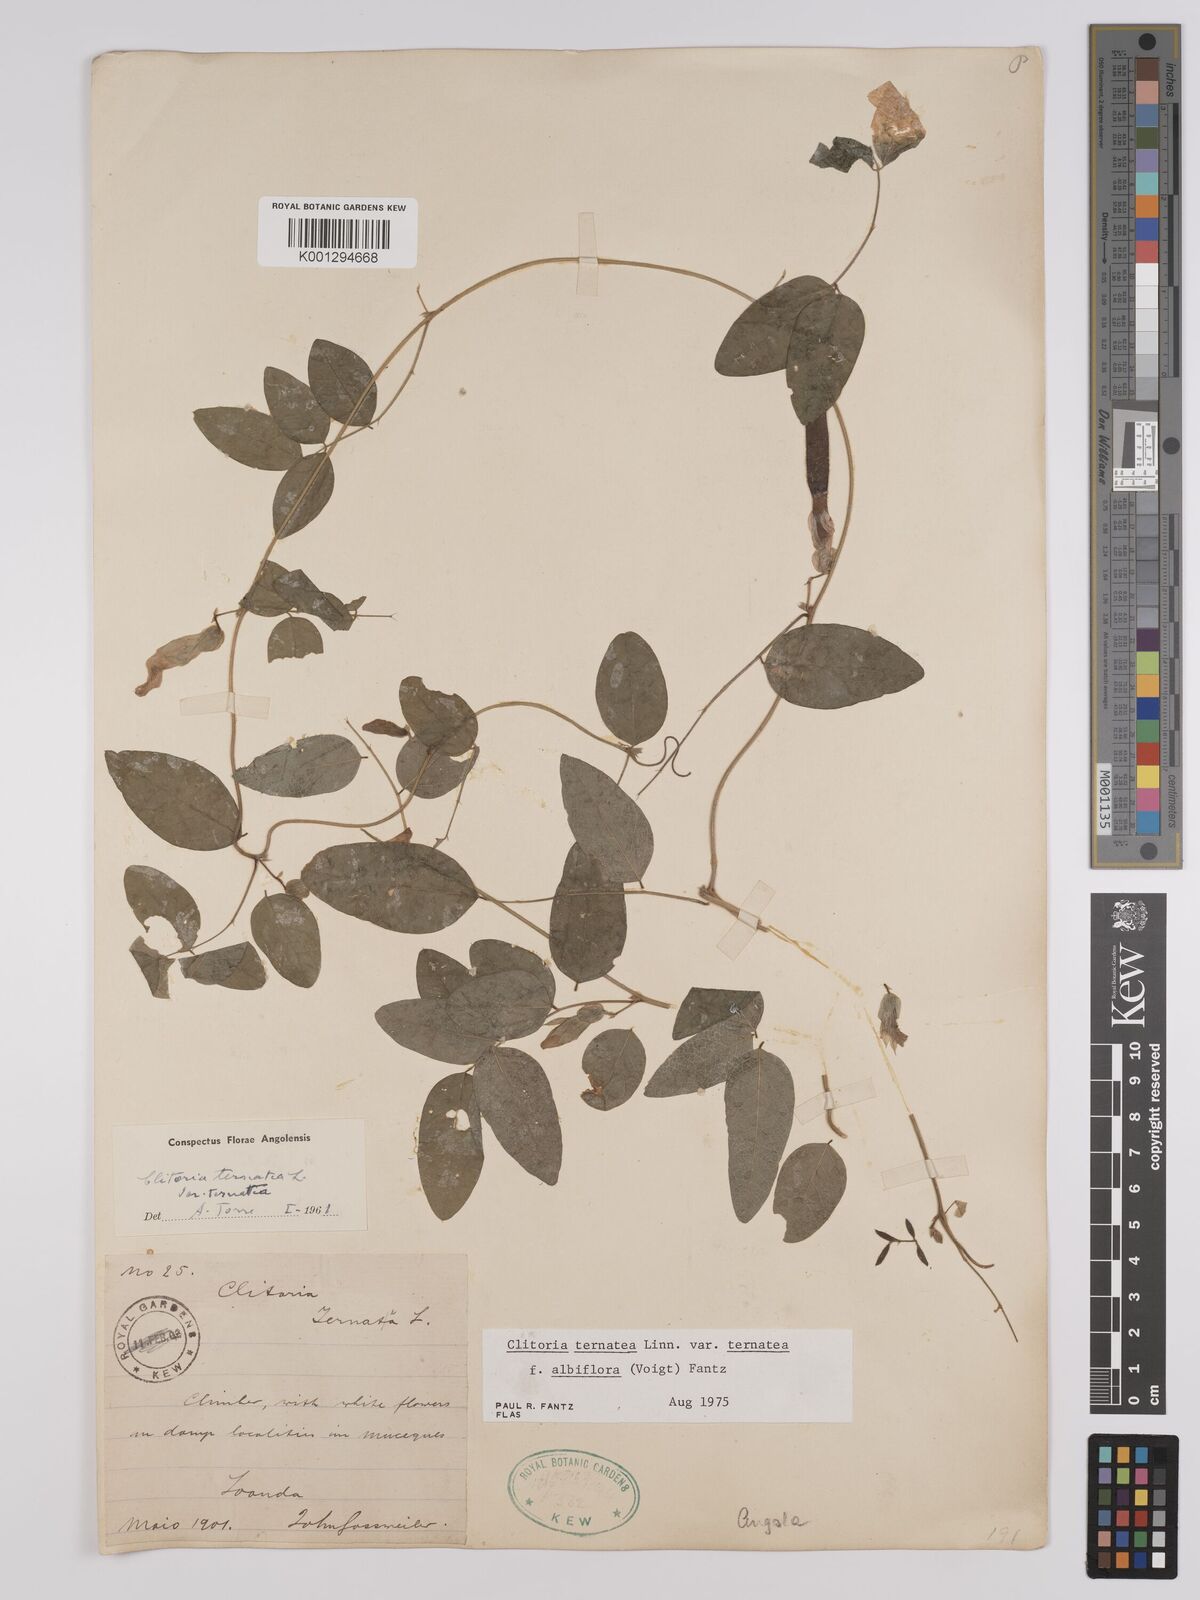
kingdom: Plantae
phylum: Tracheophyta
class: Magnoliopsida
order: Fabales
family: Fabaceae
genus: Clitoria
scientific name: Clitoria ternatea
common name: Asian pigeonwings
